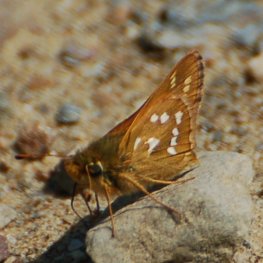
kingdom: Animalia
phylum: Arthropoda
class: Insecta
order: Lepidoptera
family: Hesperiidae
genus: Hesperia
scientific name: Hesperia comma
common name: Common Branded Skipper
